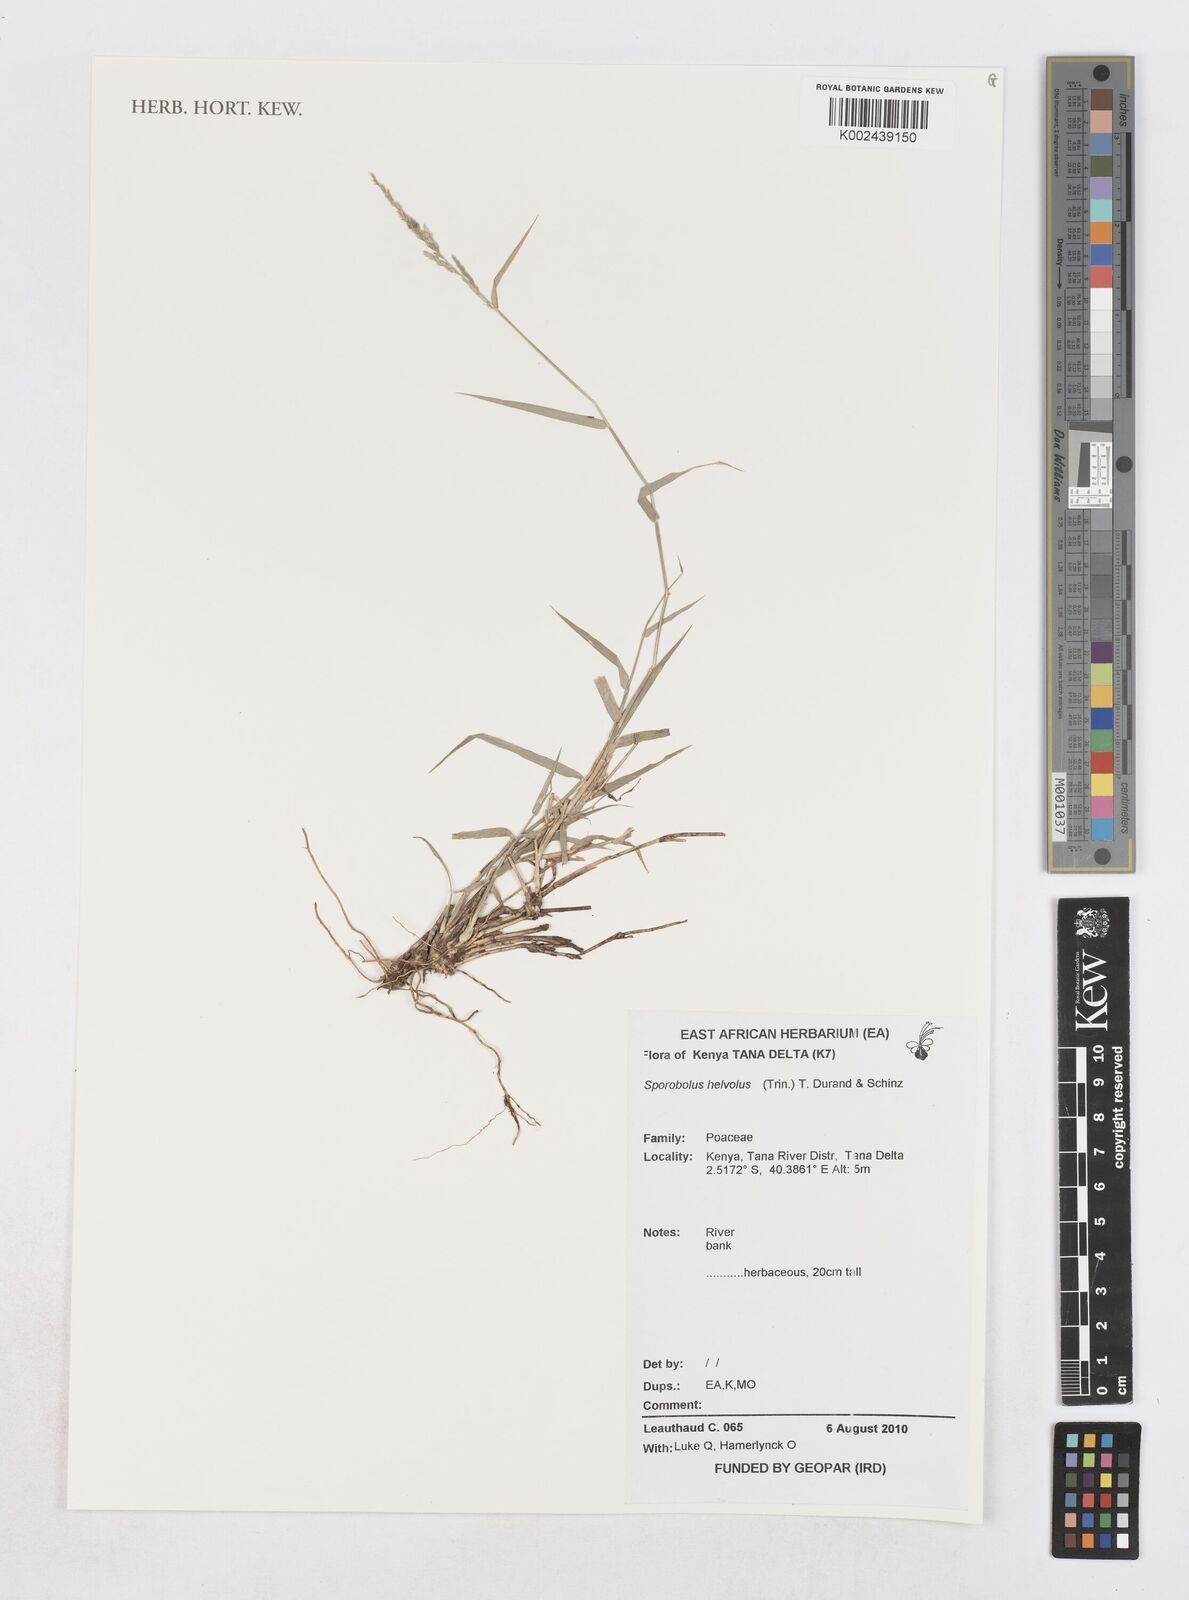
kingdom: Plantae
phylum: Tracheophyta
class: Liliopsida
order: Poales
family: Poaceae
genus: Sporobolus
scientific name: Sporobolus helvolus
